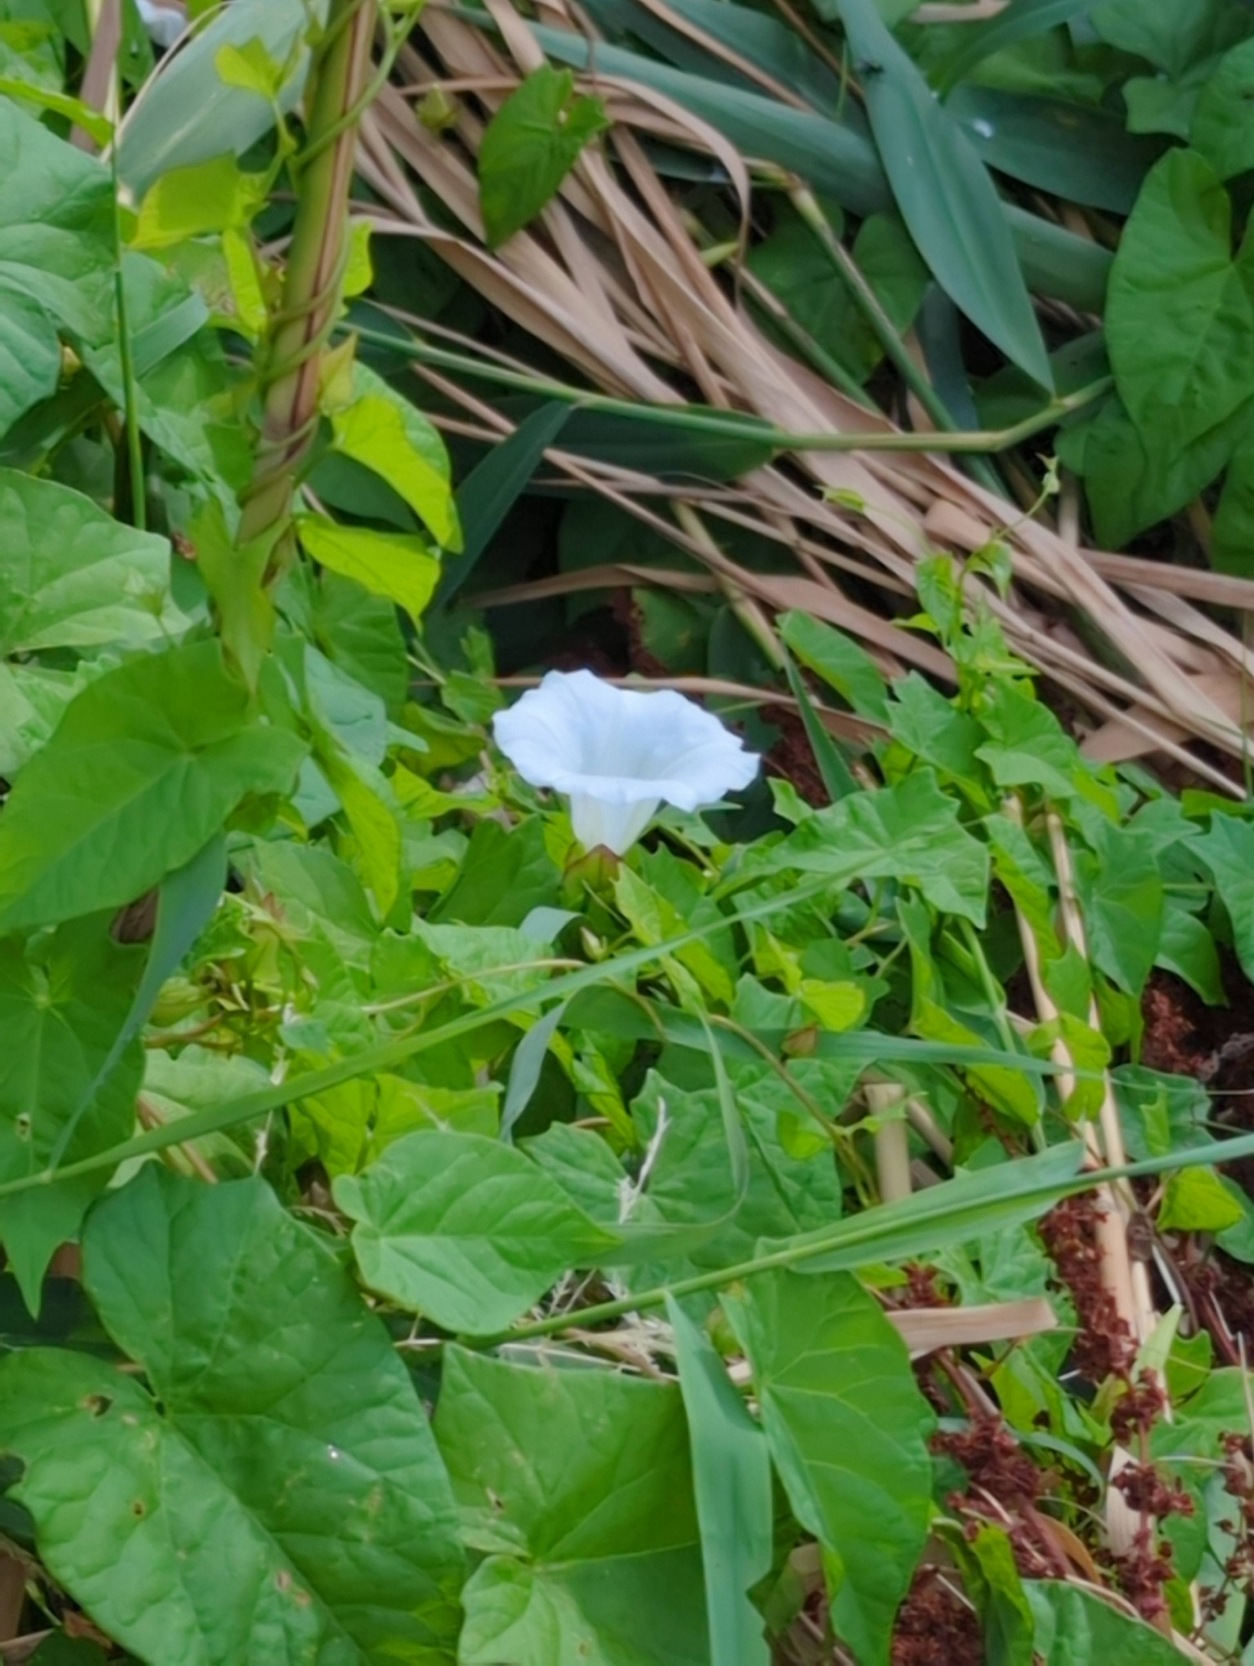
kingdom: Plantae
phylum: Tracheophyta
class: Magnoliopsida
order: Solanales
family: Convolvulaceae
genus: Calystegia
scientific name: Calystegia sepium
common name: Gærde-snerle
